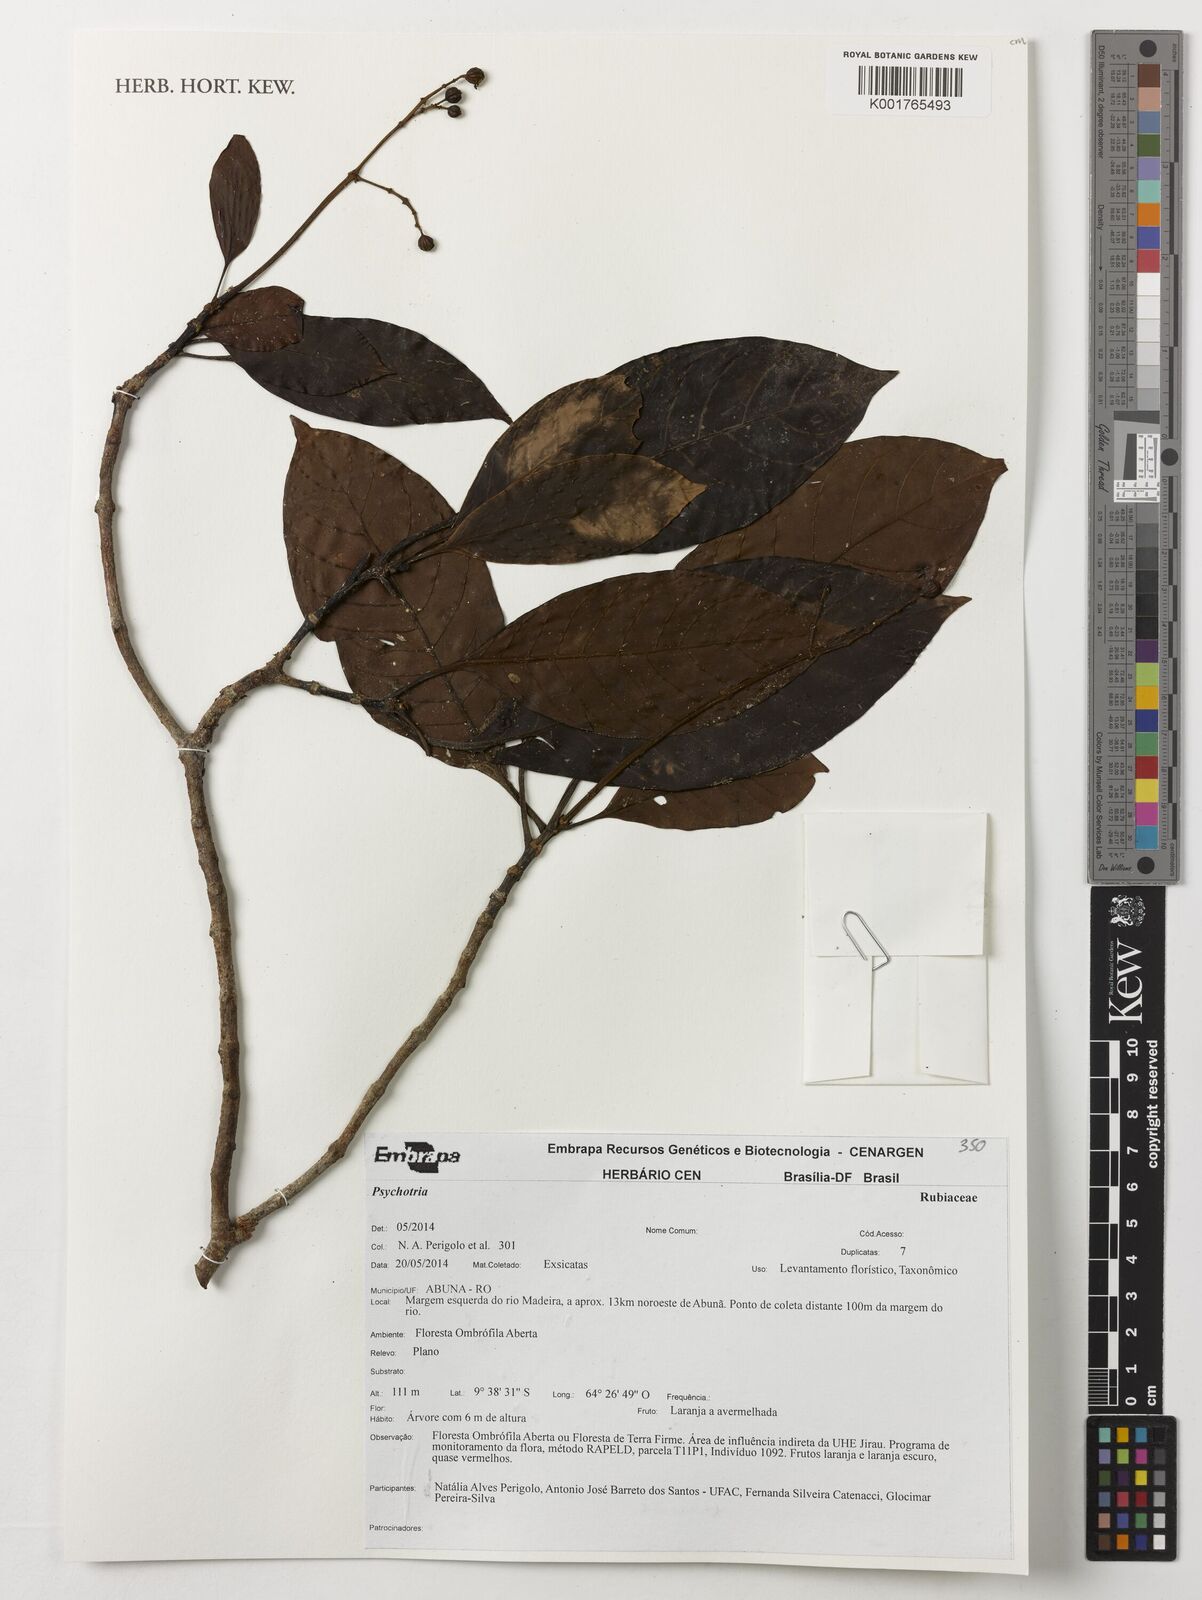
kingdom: Plantae
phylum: Tracheophyta
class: Magnoliopsida
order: Gentianales
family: Rubiaceae
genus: Psychotria
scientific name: Psychotria
